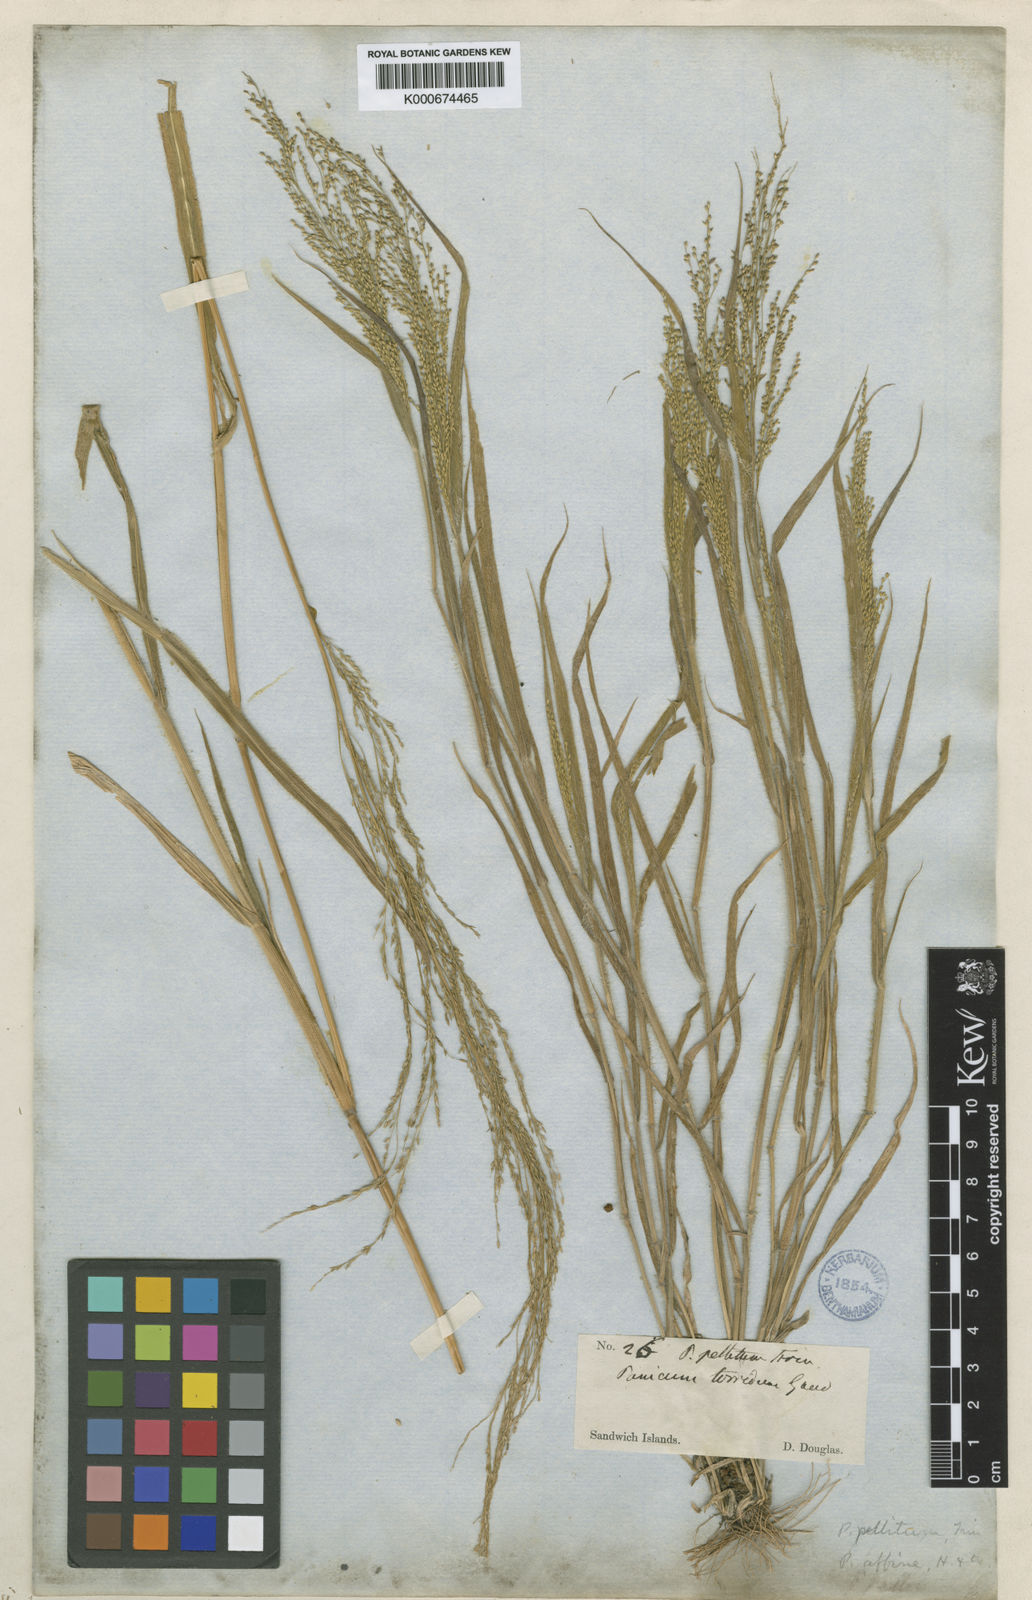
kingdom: Plantae
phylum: Tracheophyta
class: Liliopsida
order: Poales
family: Poaceae
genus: Panicum
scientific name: Panicum pellitum
